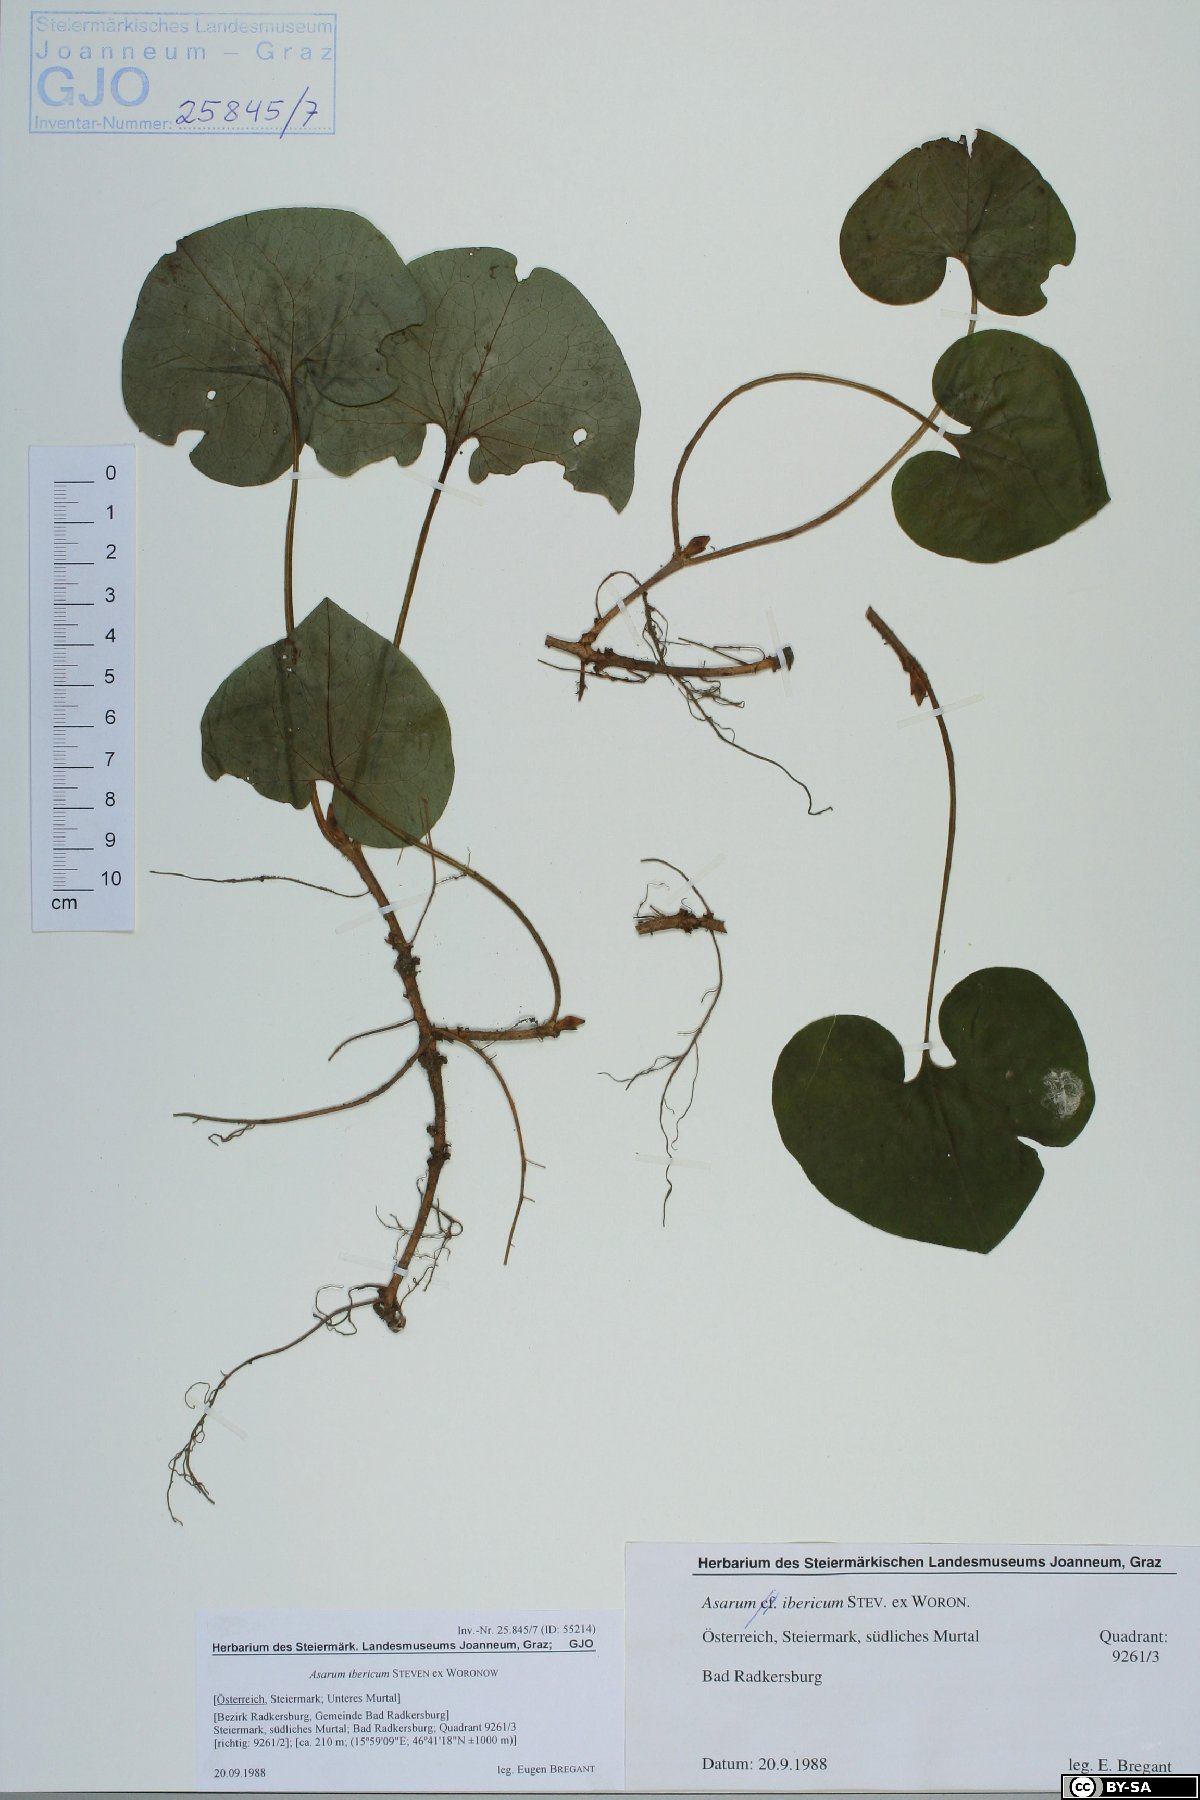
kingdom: Plantae
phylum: Tracheophyta
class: Magnoliopsida
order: Piperales
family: Aristolochiaceae
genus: Asarum
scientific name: Asarum europaeum
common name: Asarabacca
